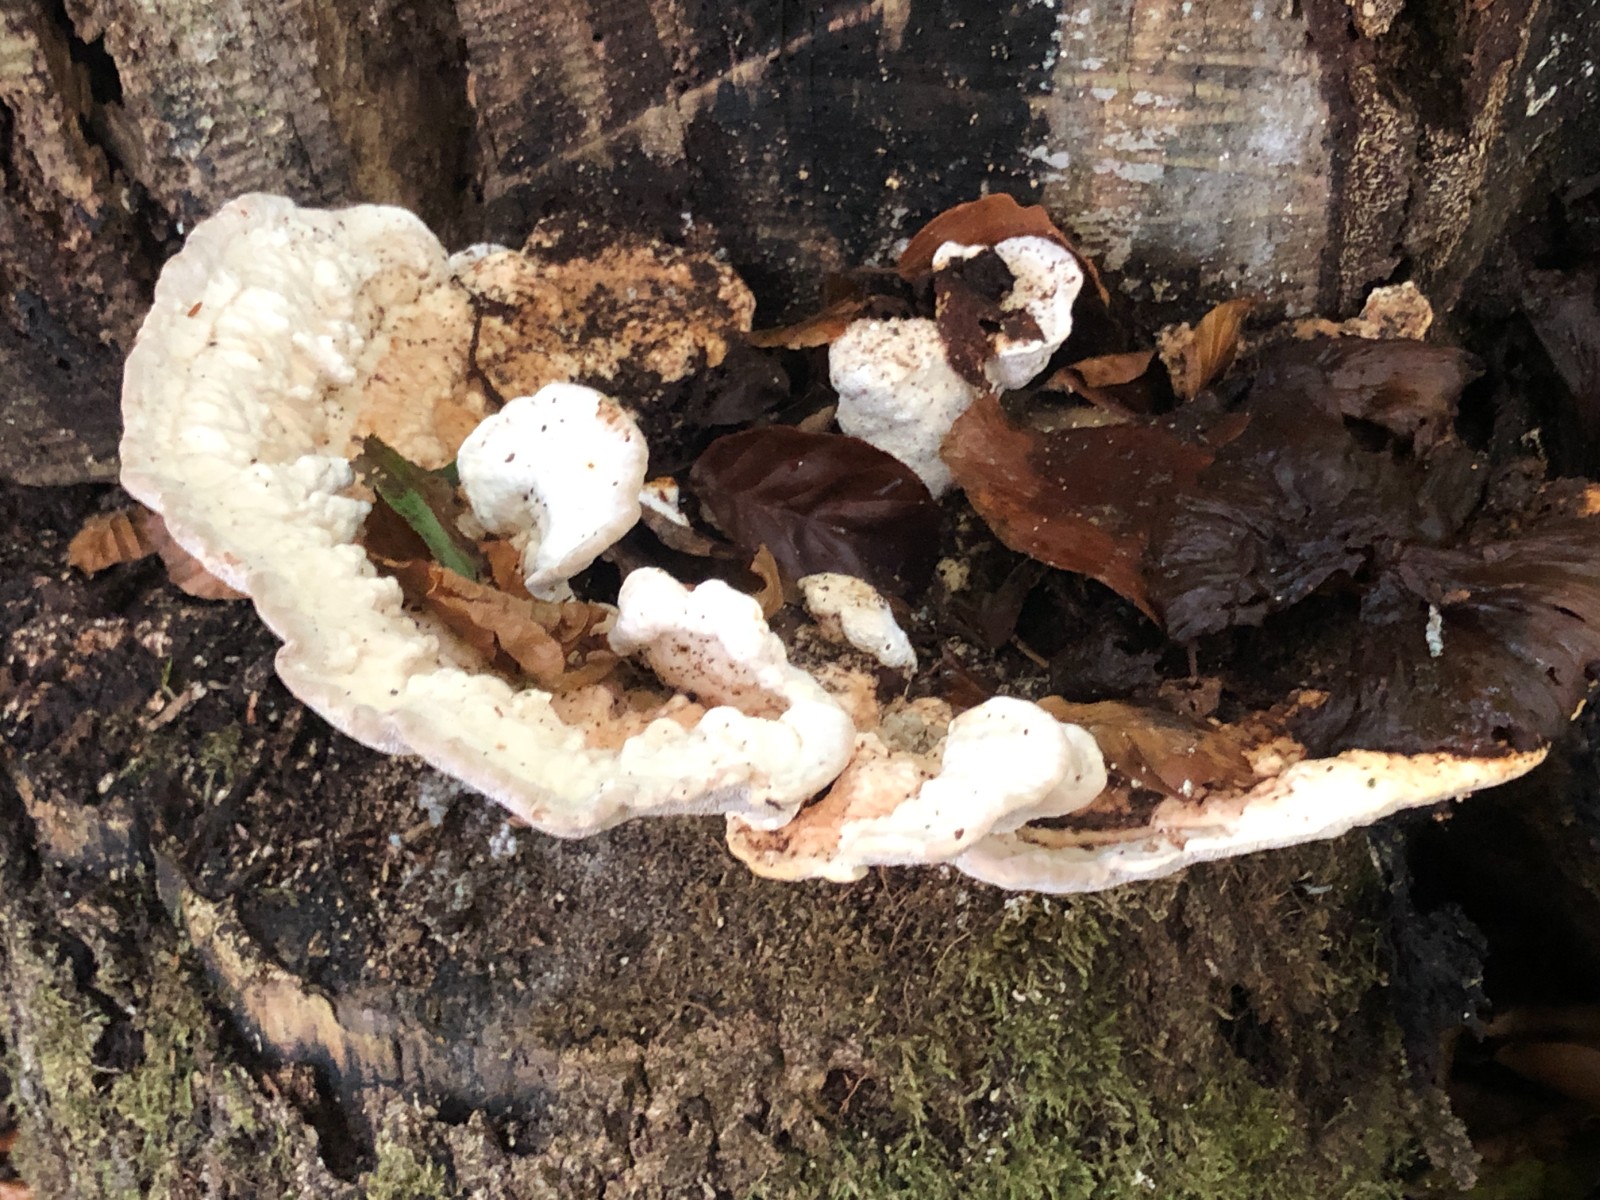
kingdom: Fungi
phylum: Basidiomycota
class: Agaricomycetes
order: Polyporales
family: Polyporaceae
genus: Trametes
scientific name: Trametes gibbosa
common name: puklet læderporesvamp
